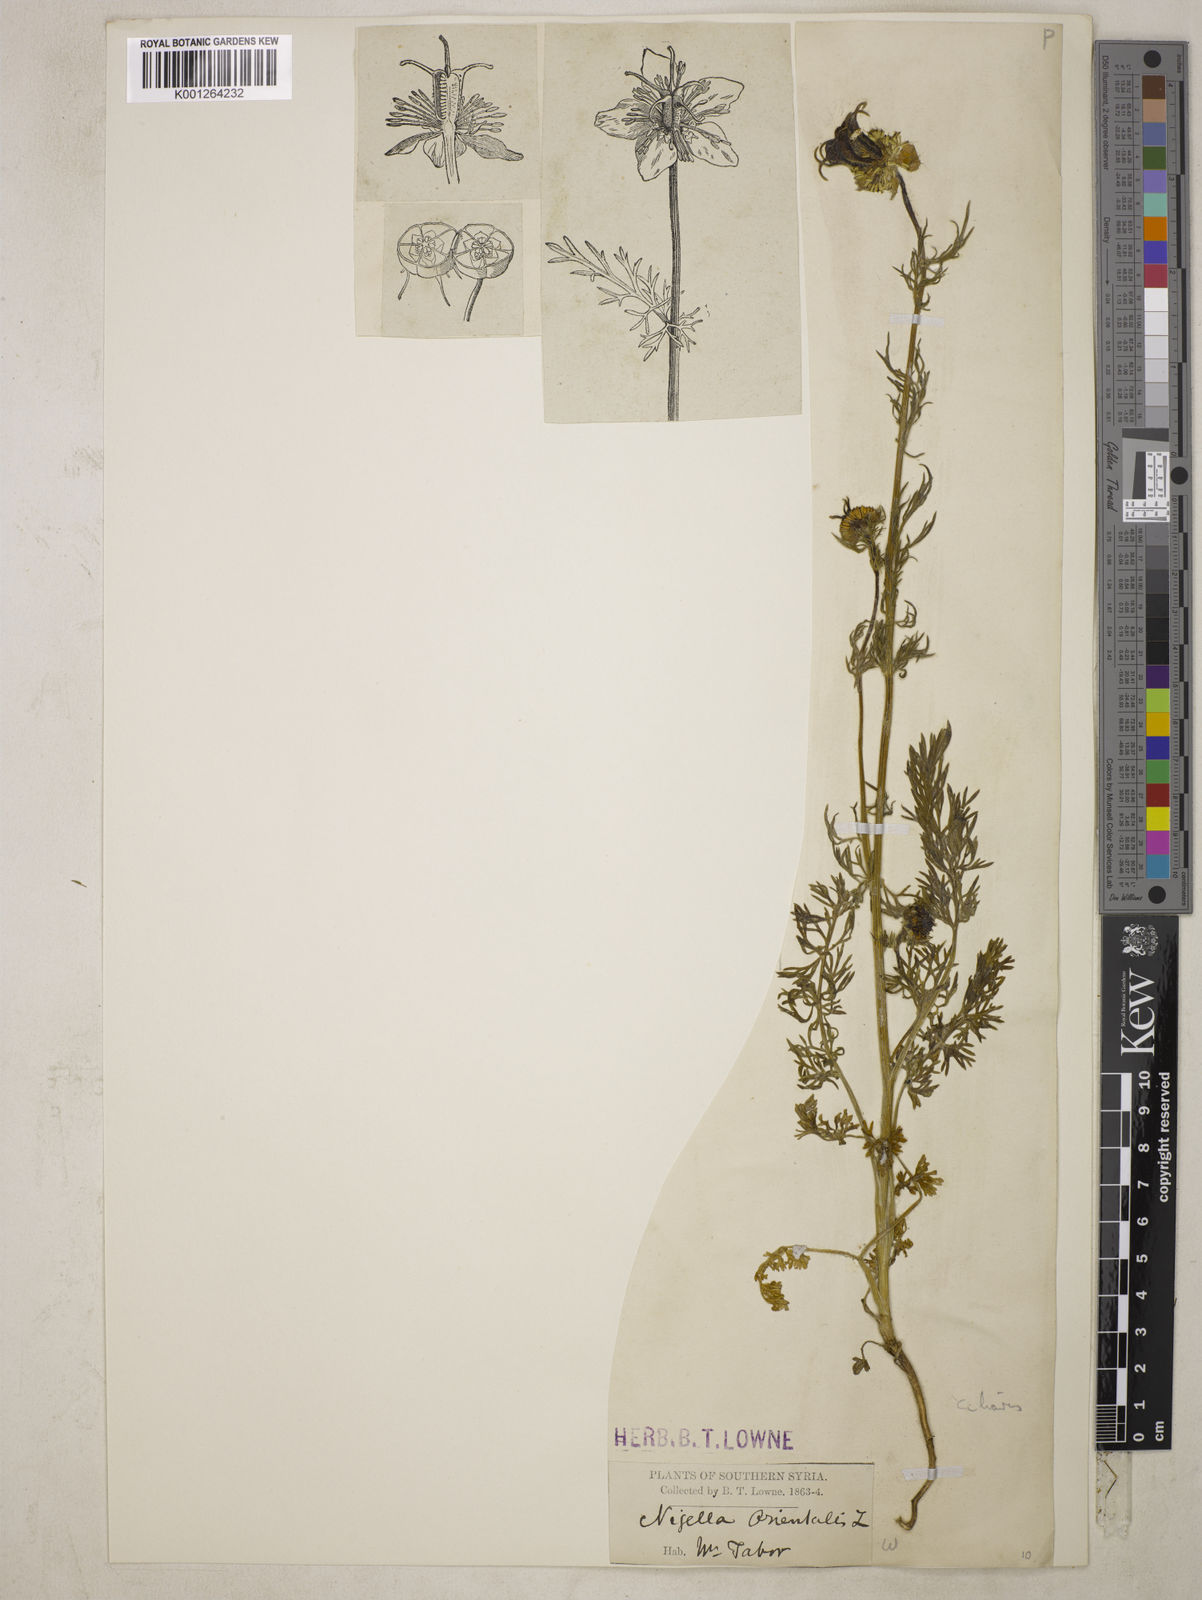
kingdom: Plantae
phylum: Tracheophyta
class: Magnoliopsida
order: Ranunculales
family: Ranunculaceae
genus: Nigella
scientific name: Nigella ciliaris
